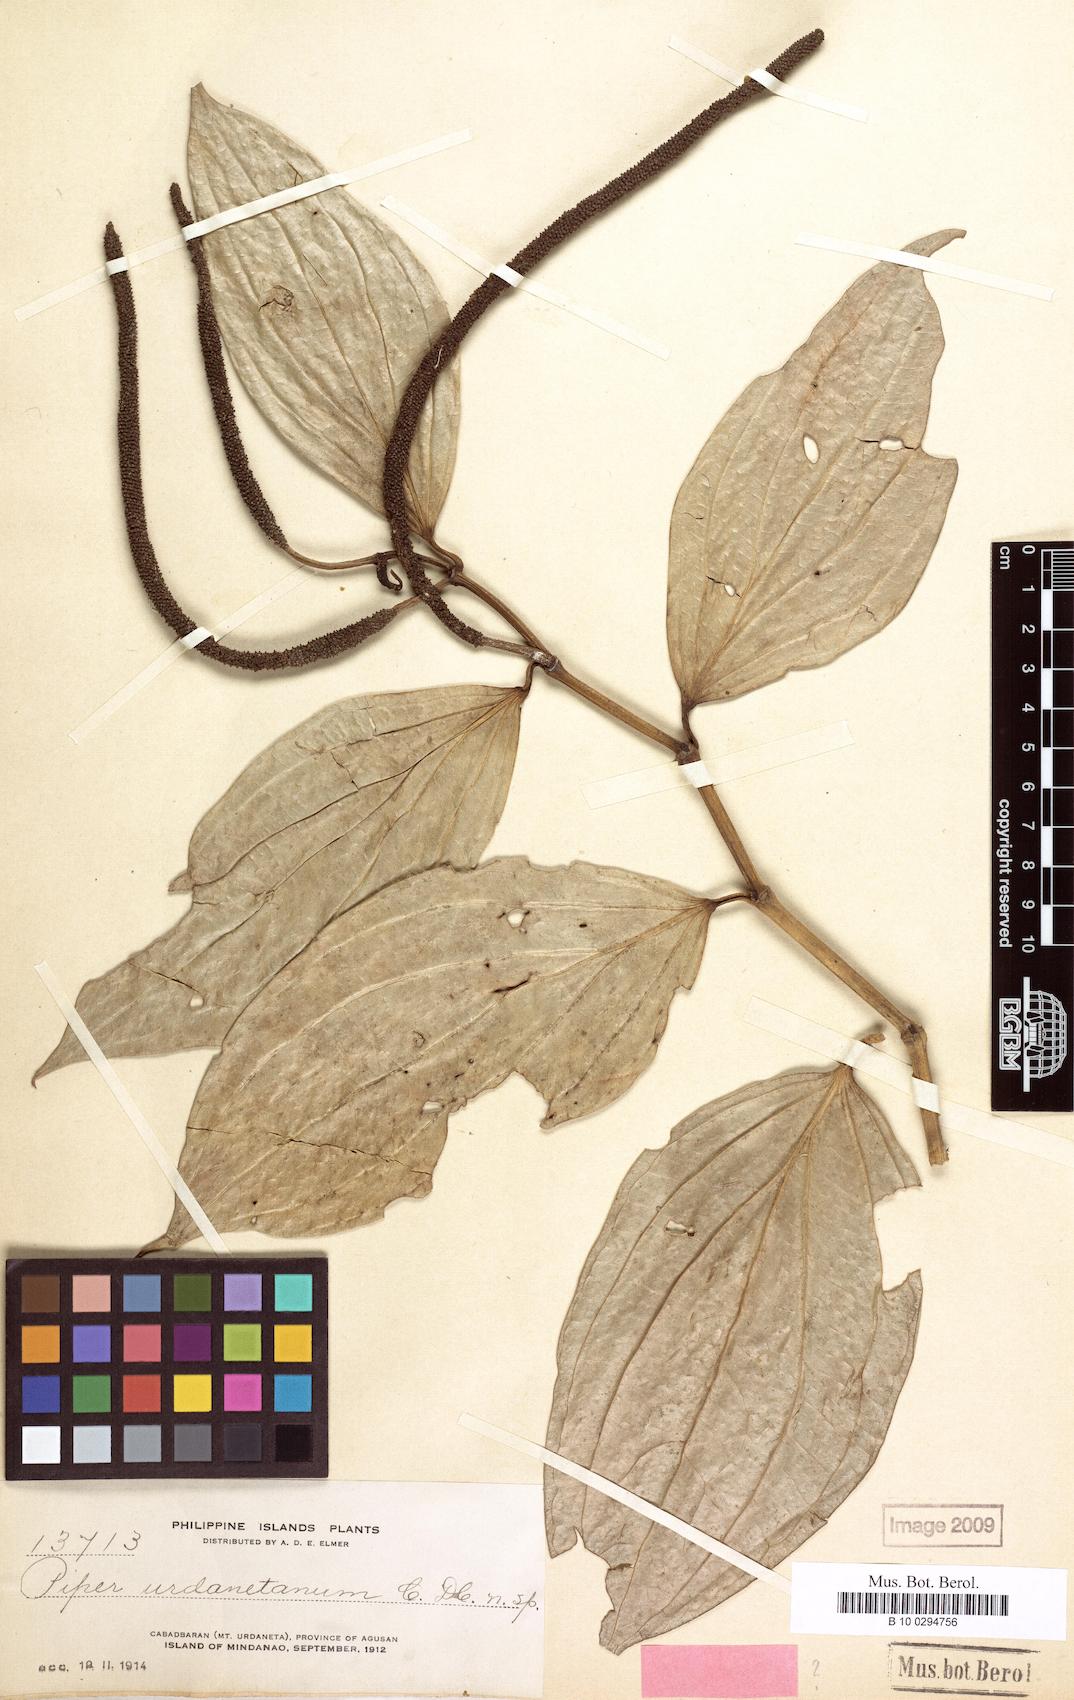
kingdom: Plantae
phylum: Tracheophyta
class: Magnoliopsida
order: Piperales
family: Piperaceae
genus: Piper
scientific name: Piper urdanetanum
